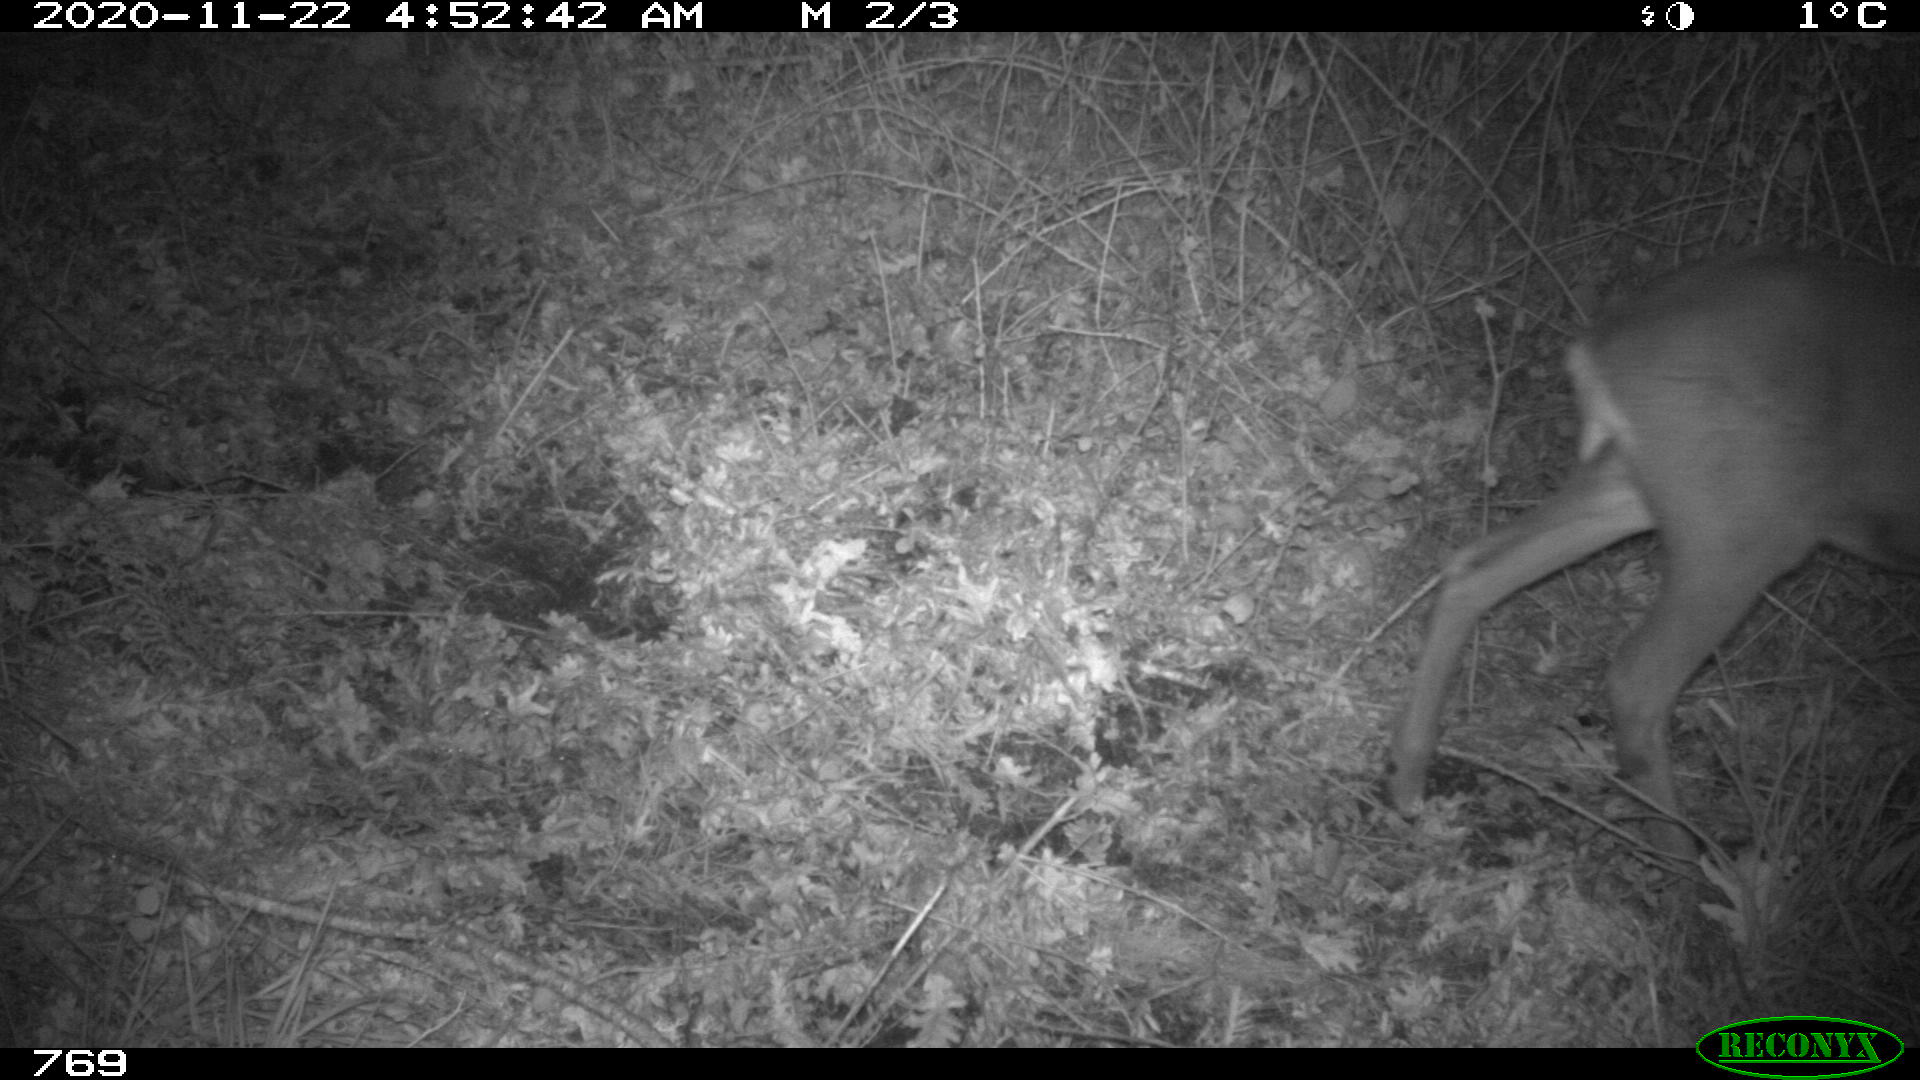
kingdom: Animalia
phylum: Chordata
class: Mammalia
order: Artiodactyla
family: Cervidae
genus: Capreolus
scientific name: Capreolus capreolus
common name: Western roe deer
